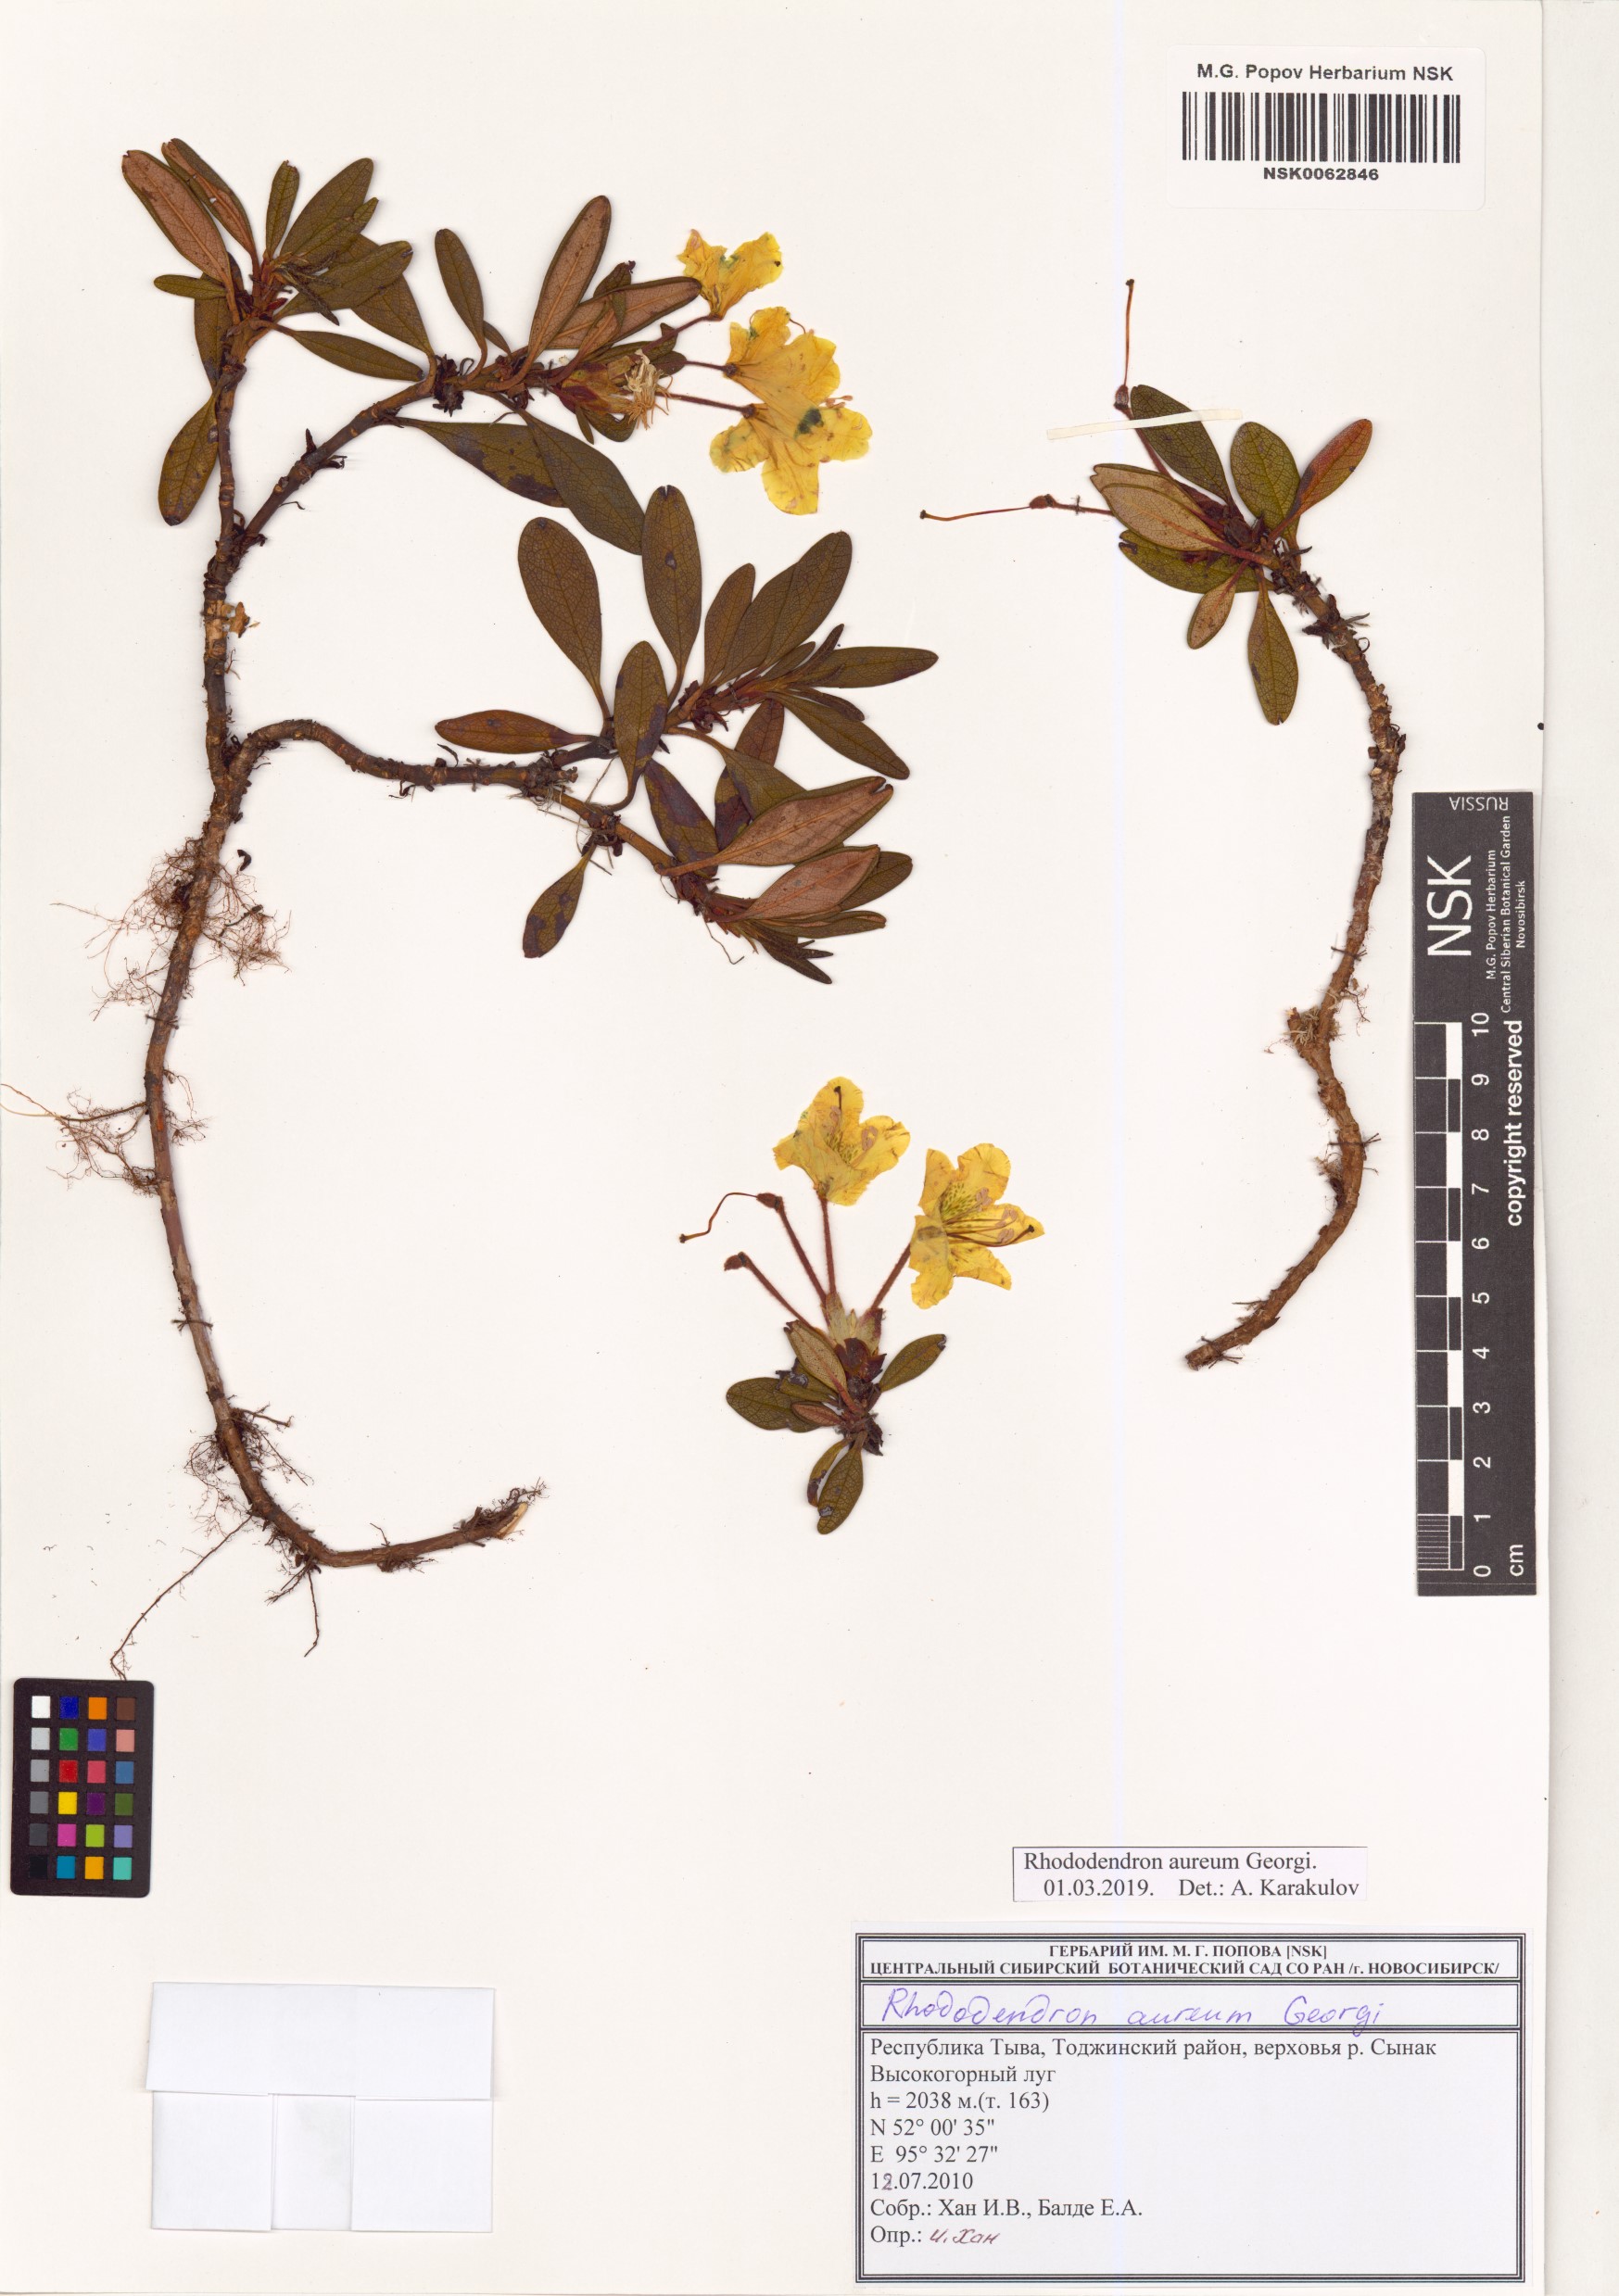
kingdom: Plantae
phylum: Tracheophyta
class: Magnoliopsida
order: Ericales
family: Ericaceae
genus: Rhododendron
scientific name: Rhododendron aureum
